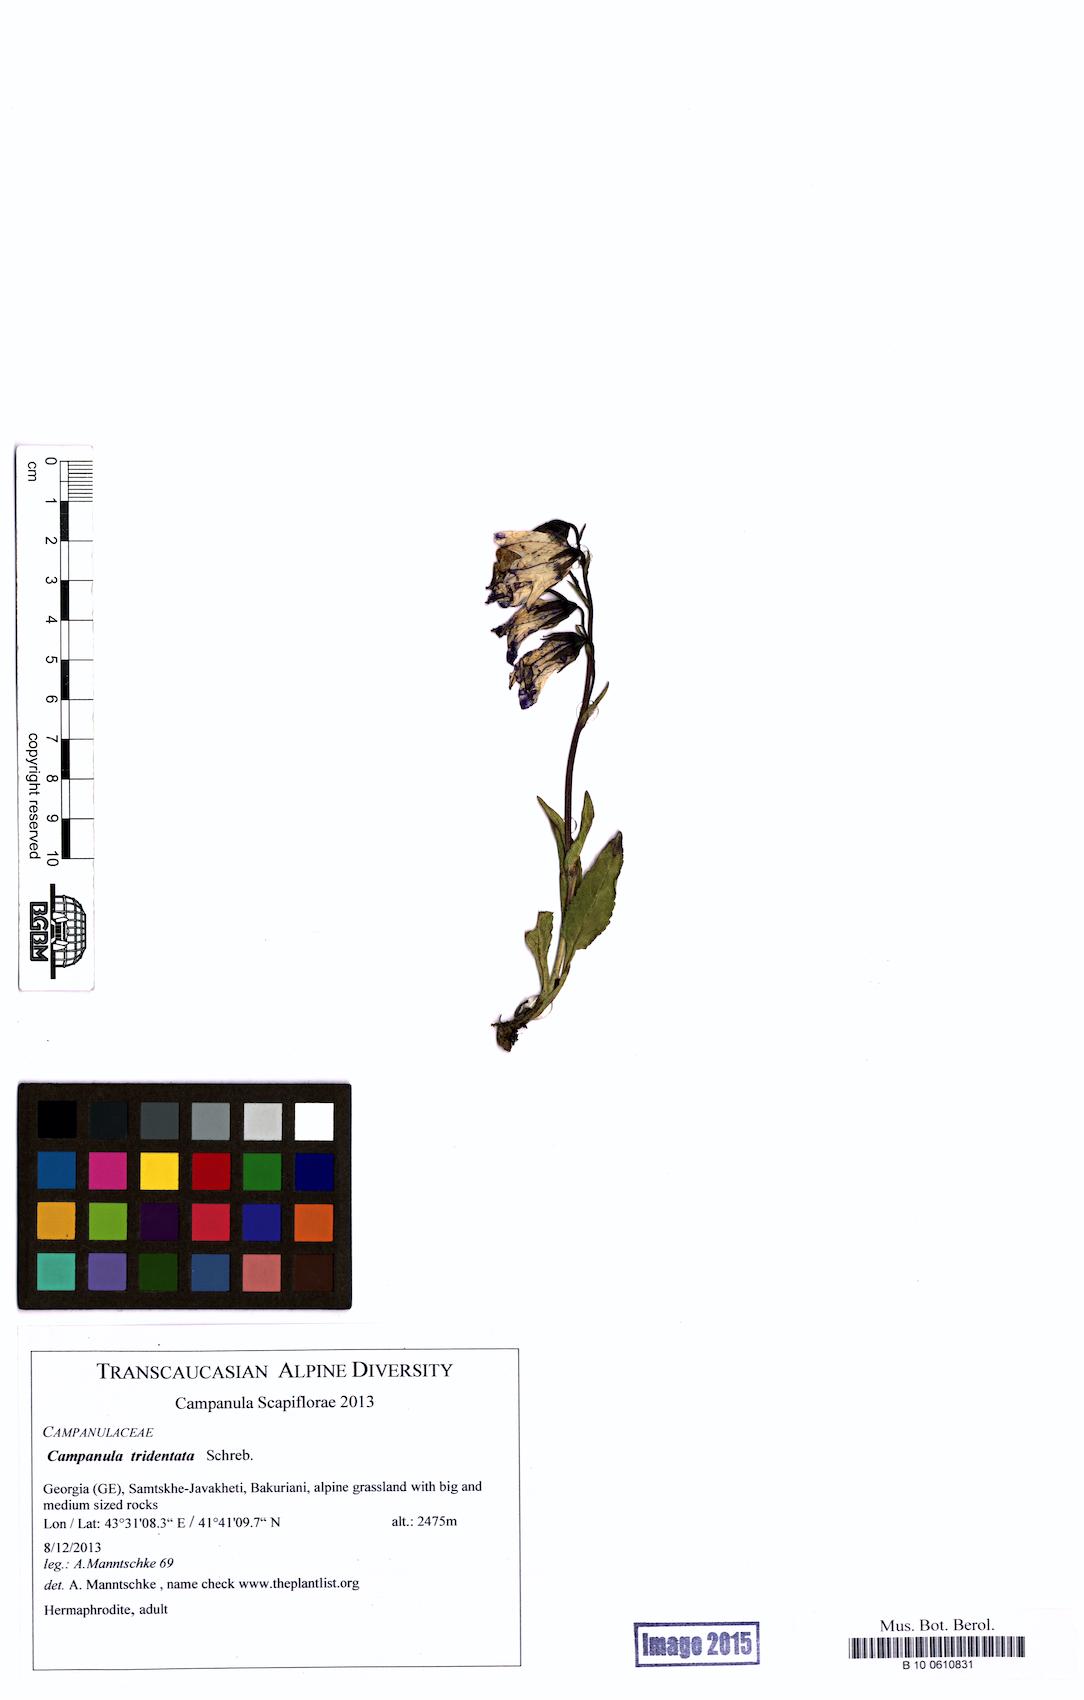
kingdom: Plantae
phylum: Tracheophyta
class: Magnoliopsida
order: Asterales
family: Campanulaceae
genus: Campanula
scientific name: Campanula tridentata
